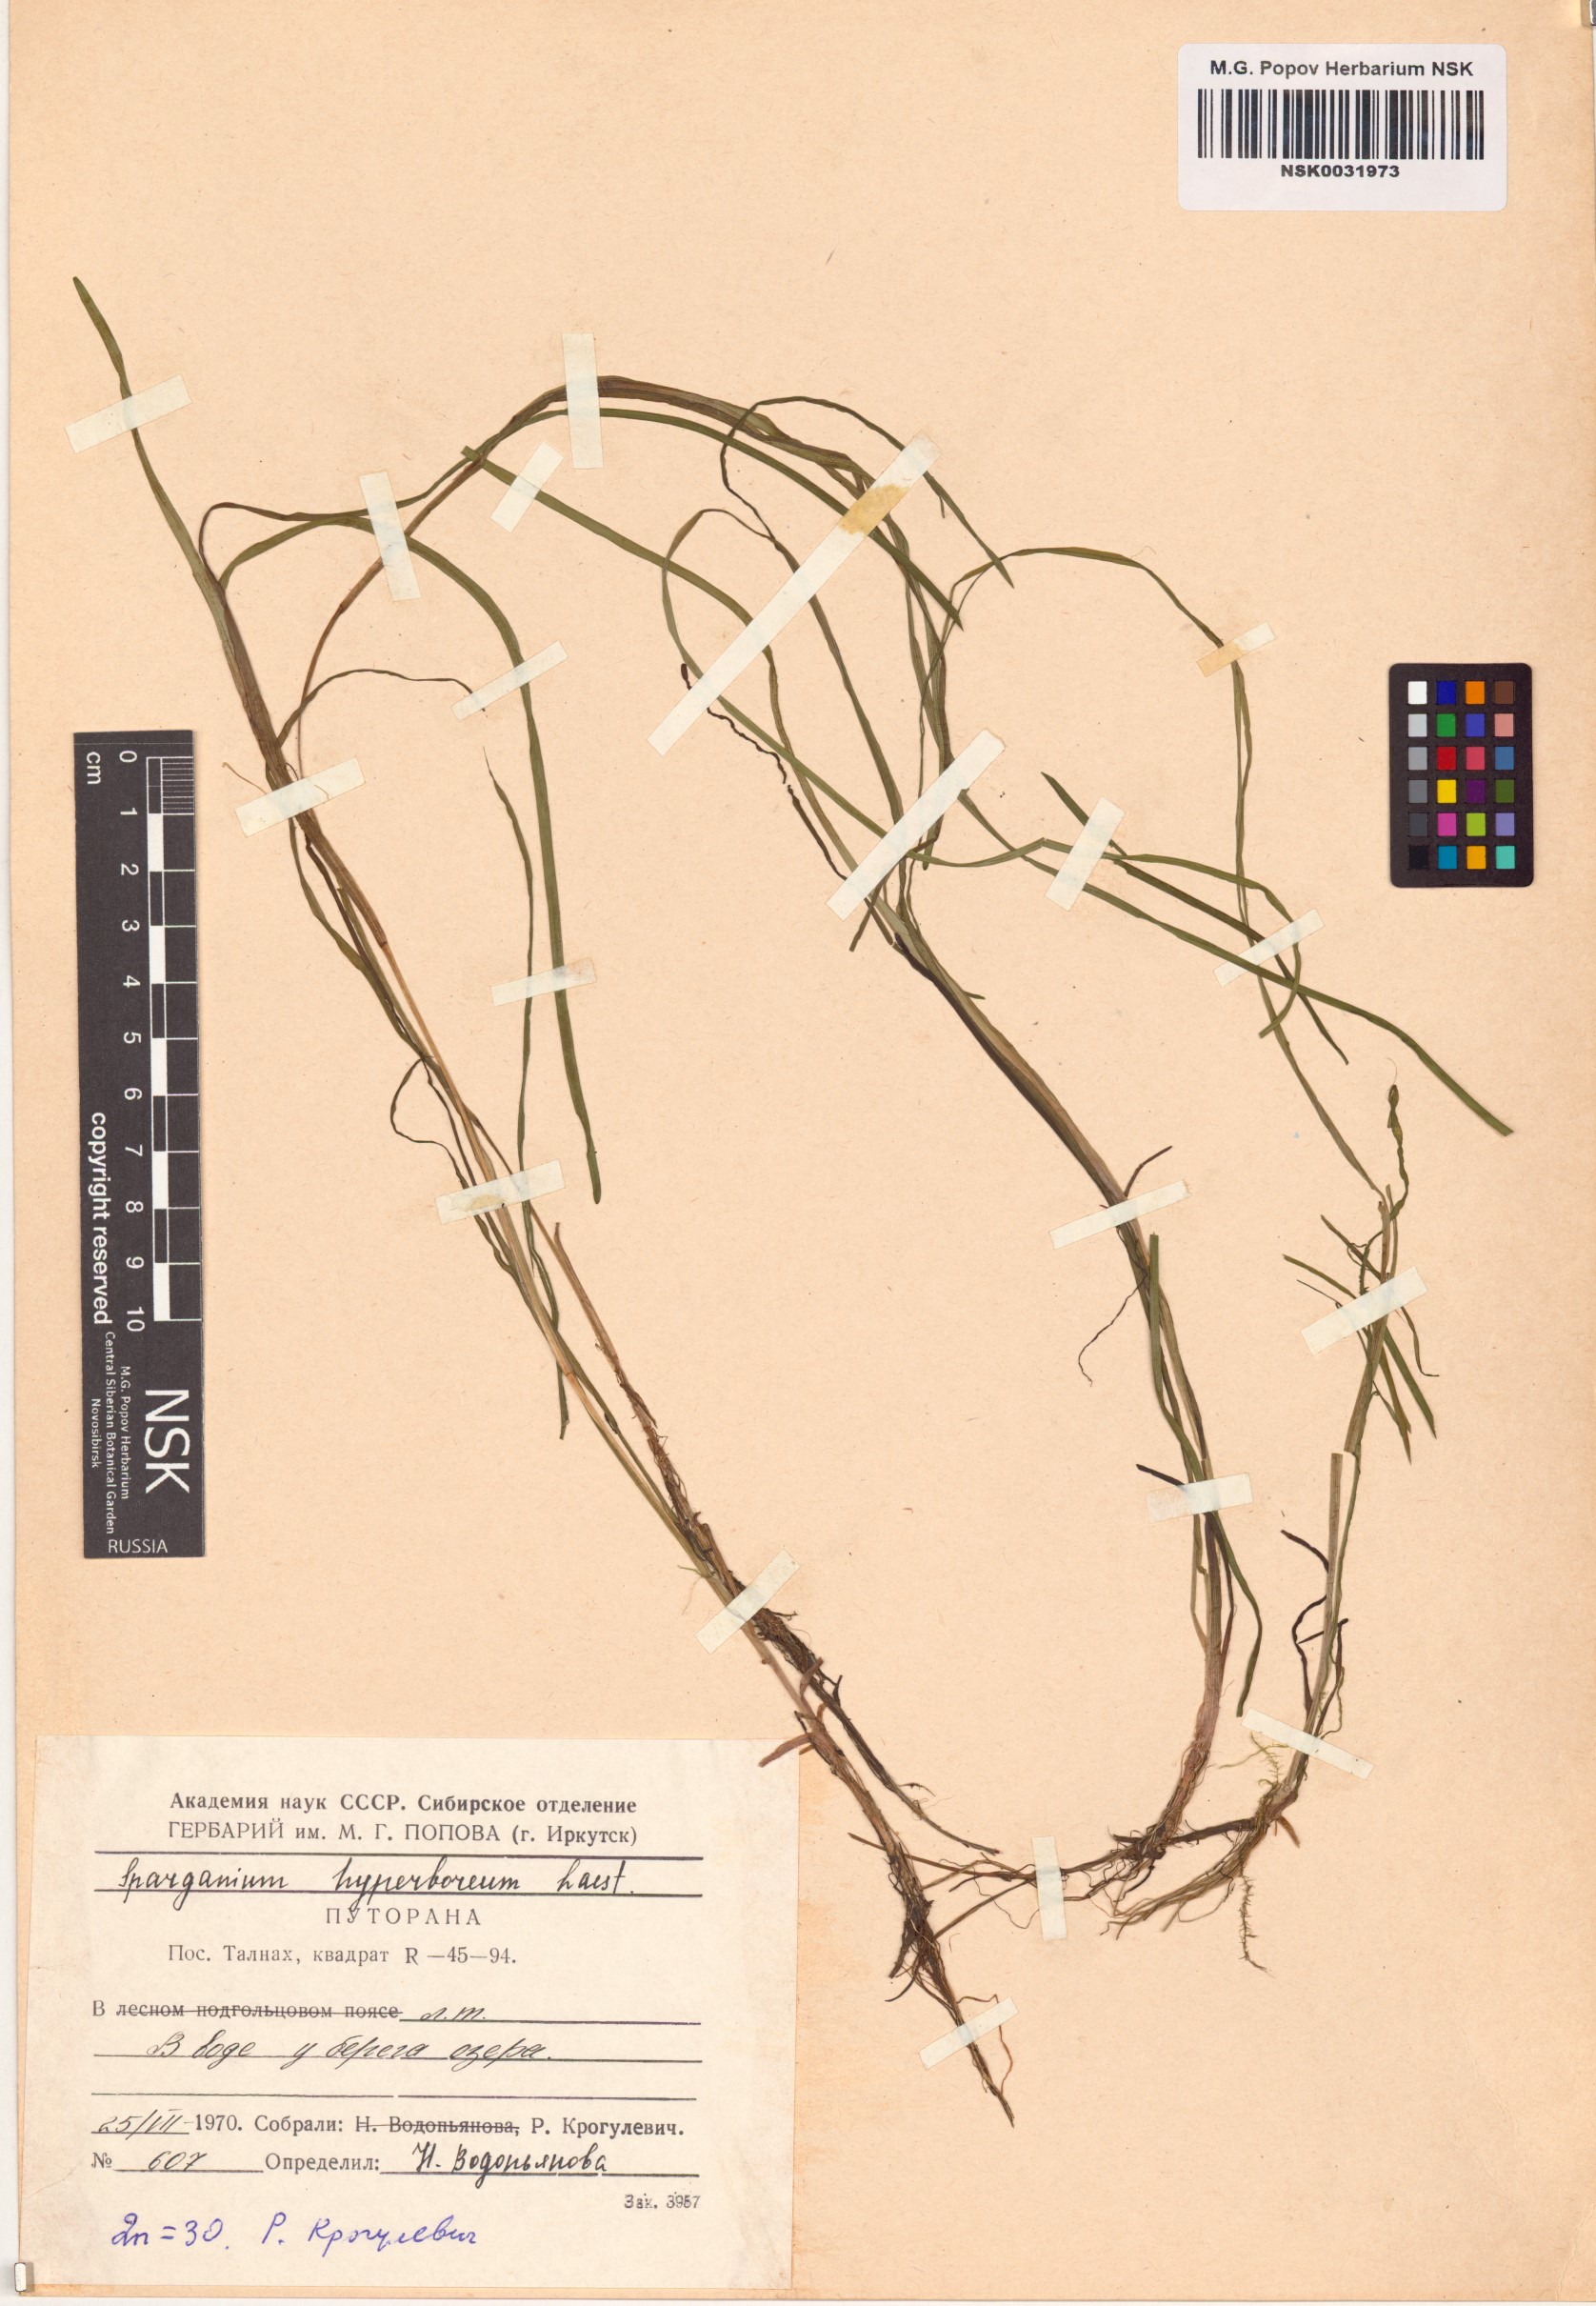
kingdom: Plantae
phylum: Tracheophyta
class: Liliopsida
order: Poales
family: Typhaceae
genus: Sparganium
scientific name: Sparganium hyperboreum
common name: Arctic burreed
